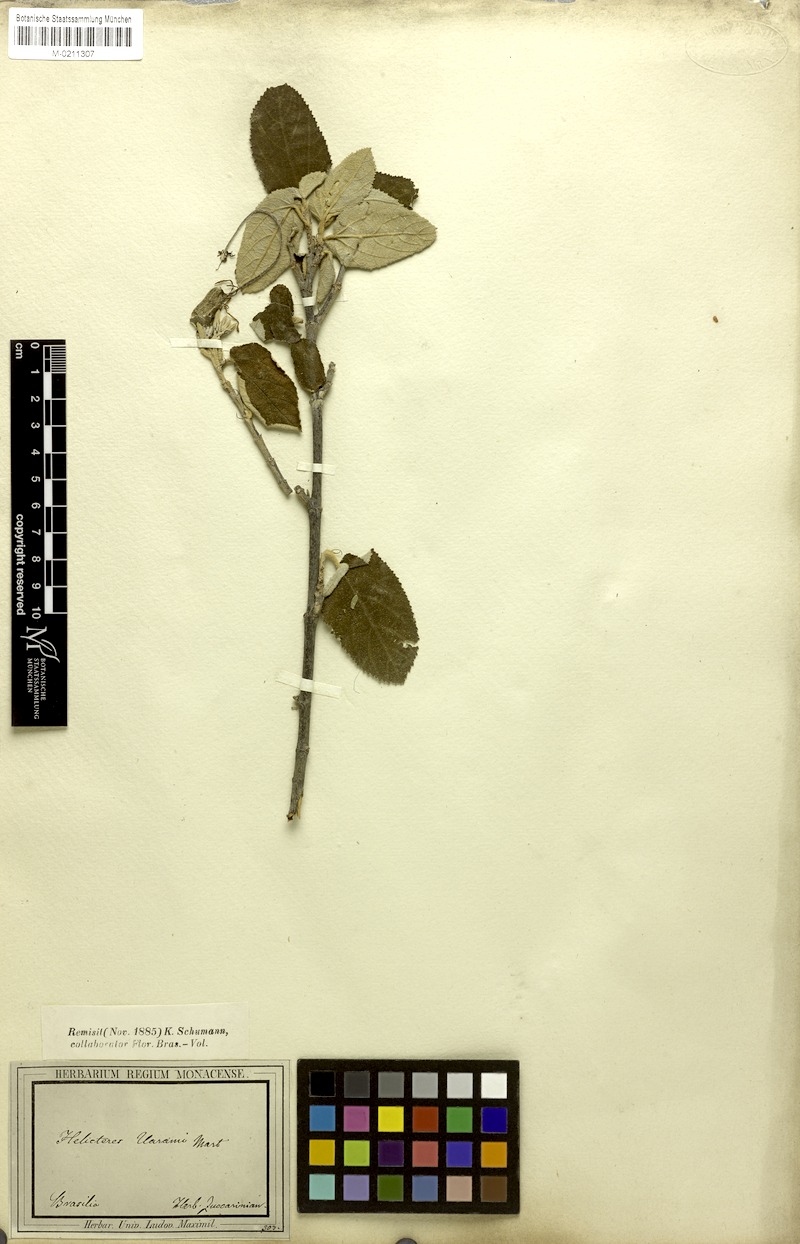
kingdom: Plantae
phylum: Tracheophyta
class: Magnoliopsida
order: Malvales
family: Malvaceae
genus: Helicteres
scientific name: Helicteres vuarame
